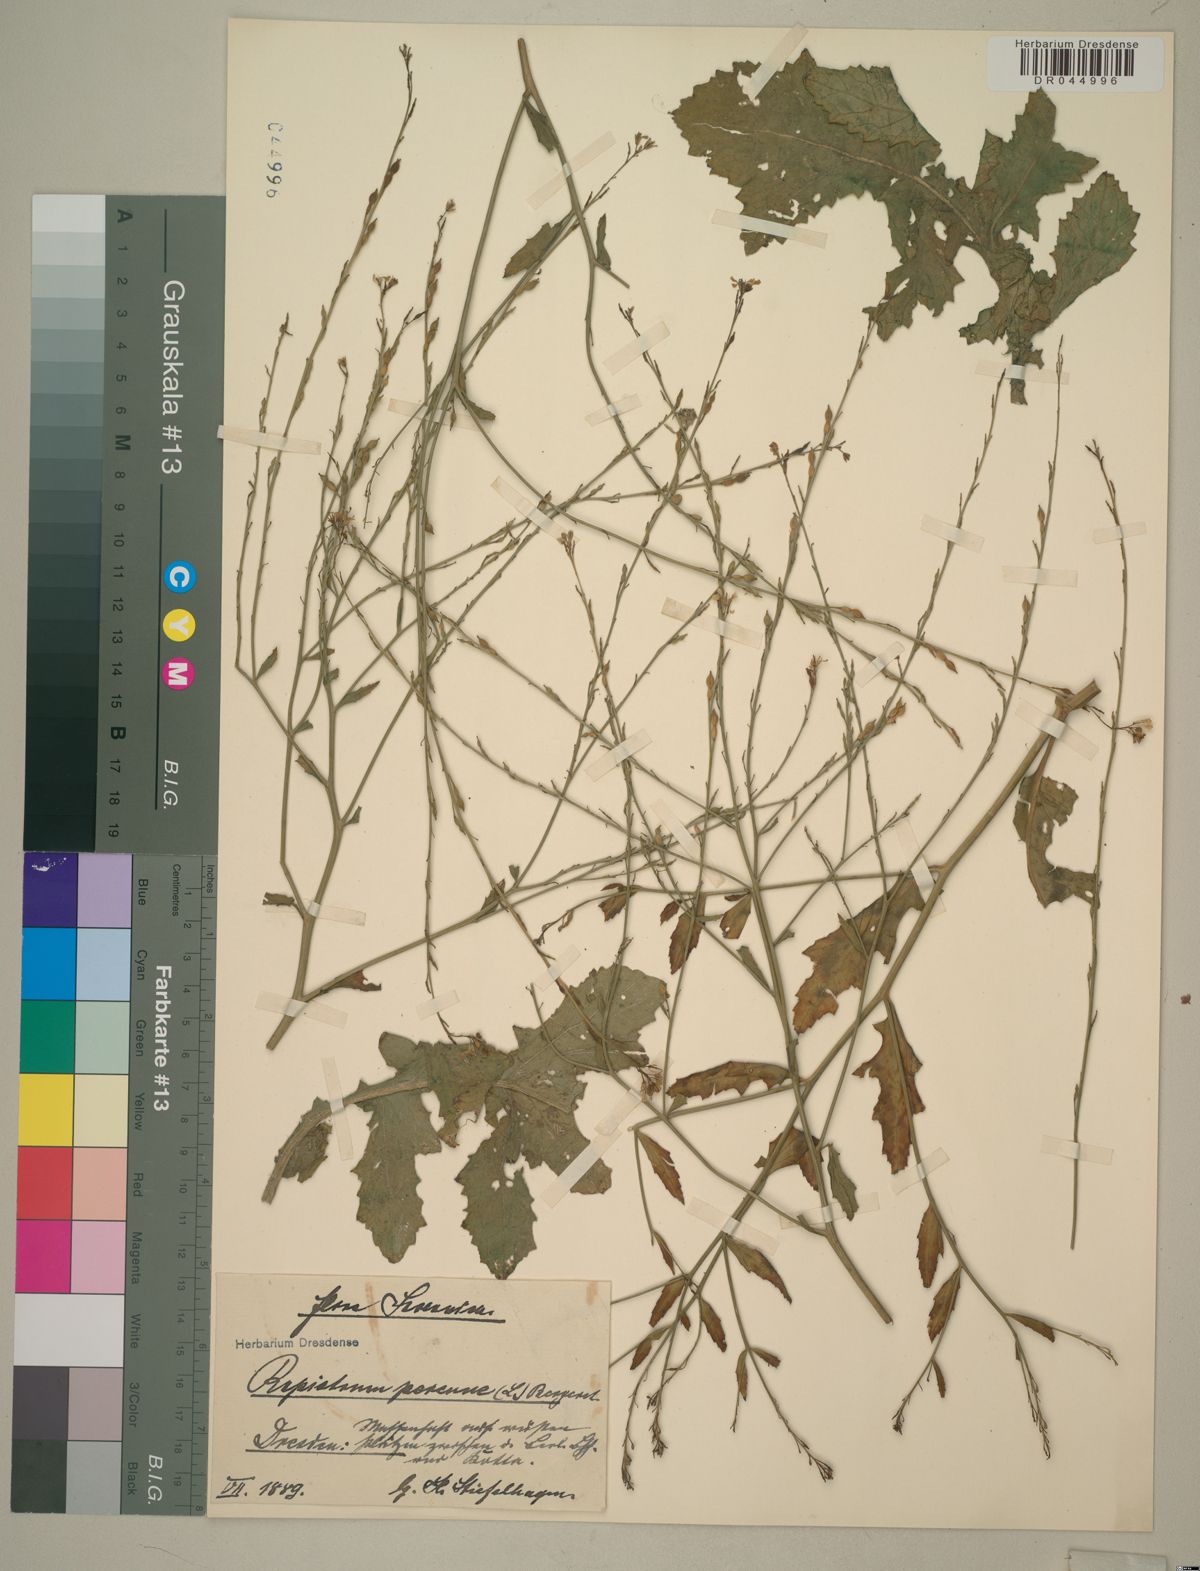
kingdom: Plantae
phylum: Tracheophyta
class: Magnoliopsida
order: Brassicales
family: Brassicaceae
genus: Rapistrum
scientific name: Rapistrum perenne
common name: Steppe cabbage
